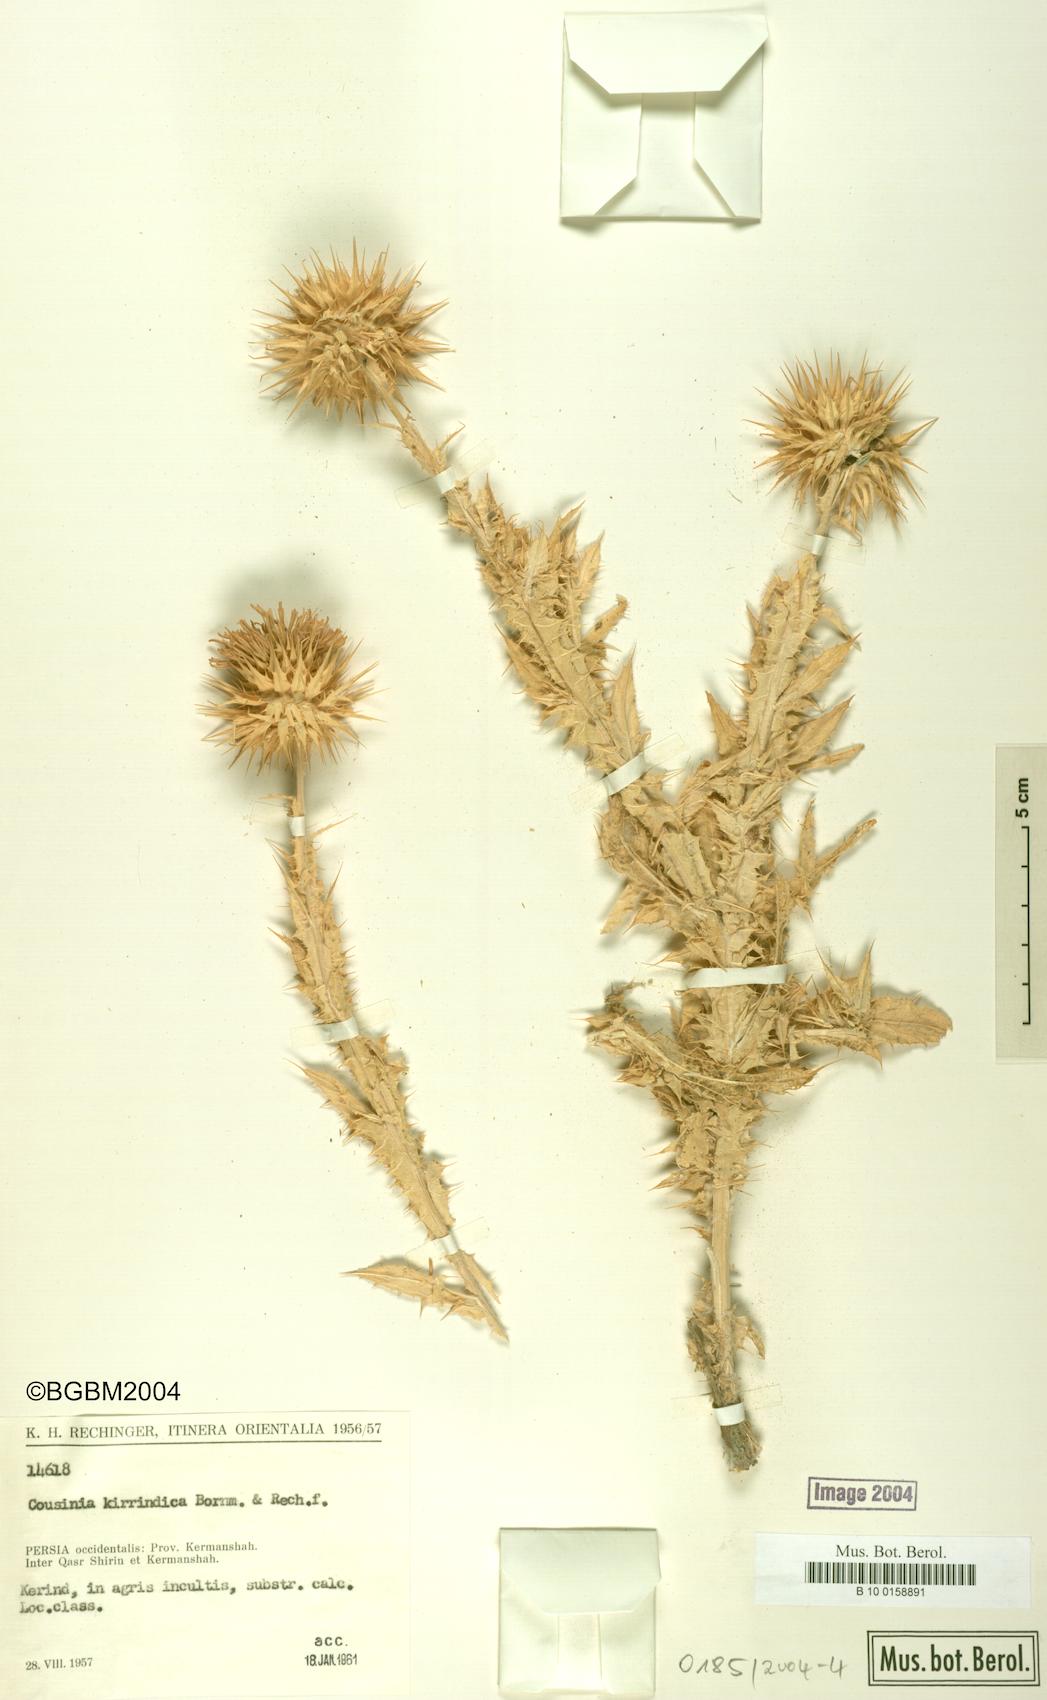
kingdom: Plantae
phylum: Tracheophyta
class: Magnoliopsida
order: Asterales
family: Asteraceae
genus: Cousinia
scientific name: Cousinia kirrindica
